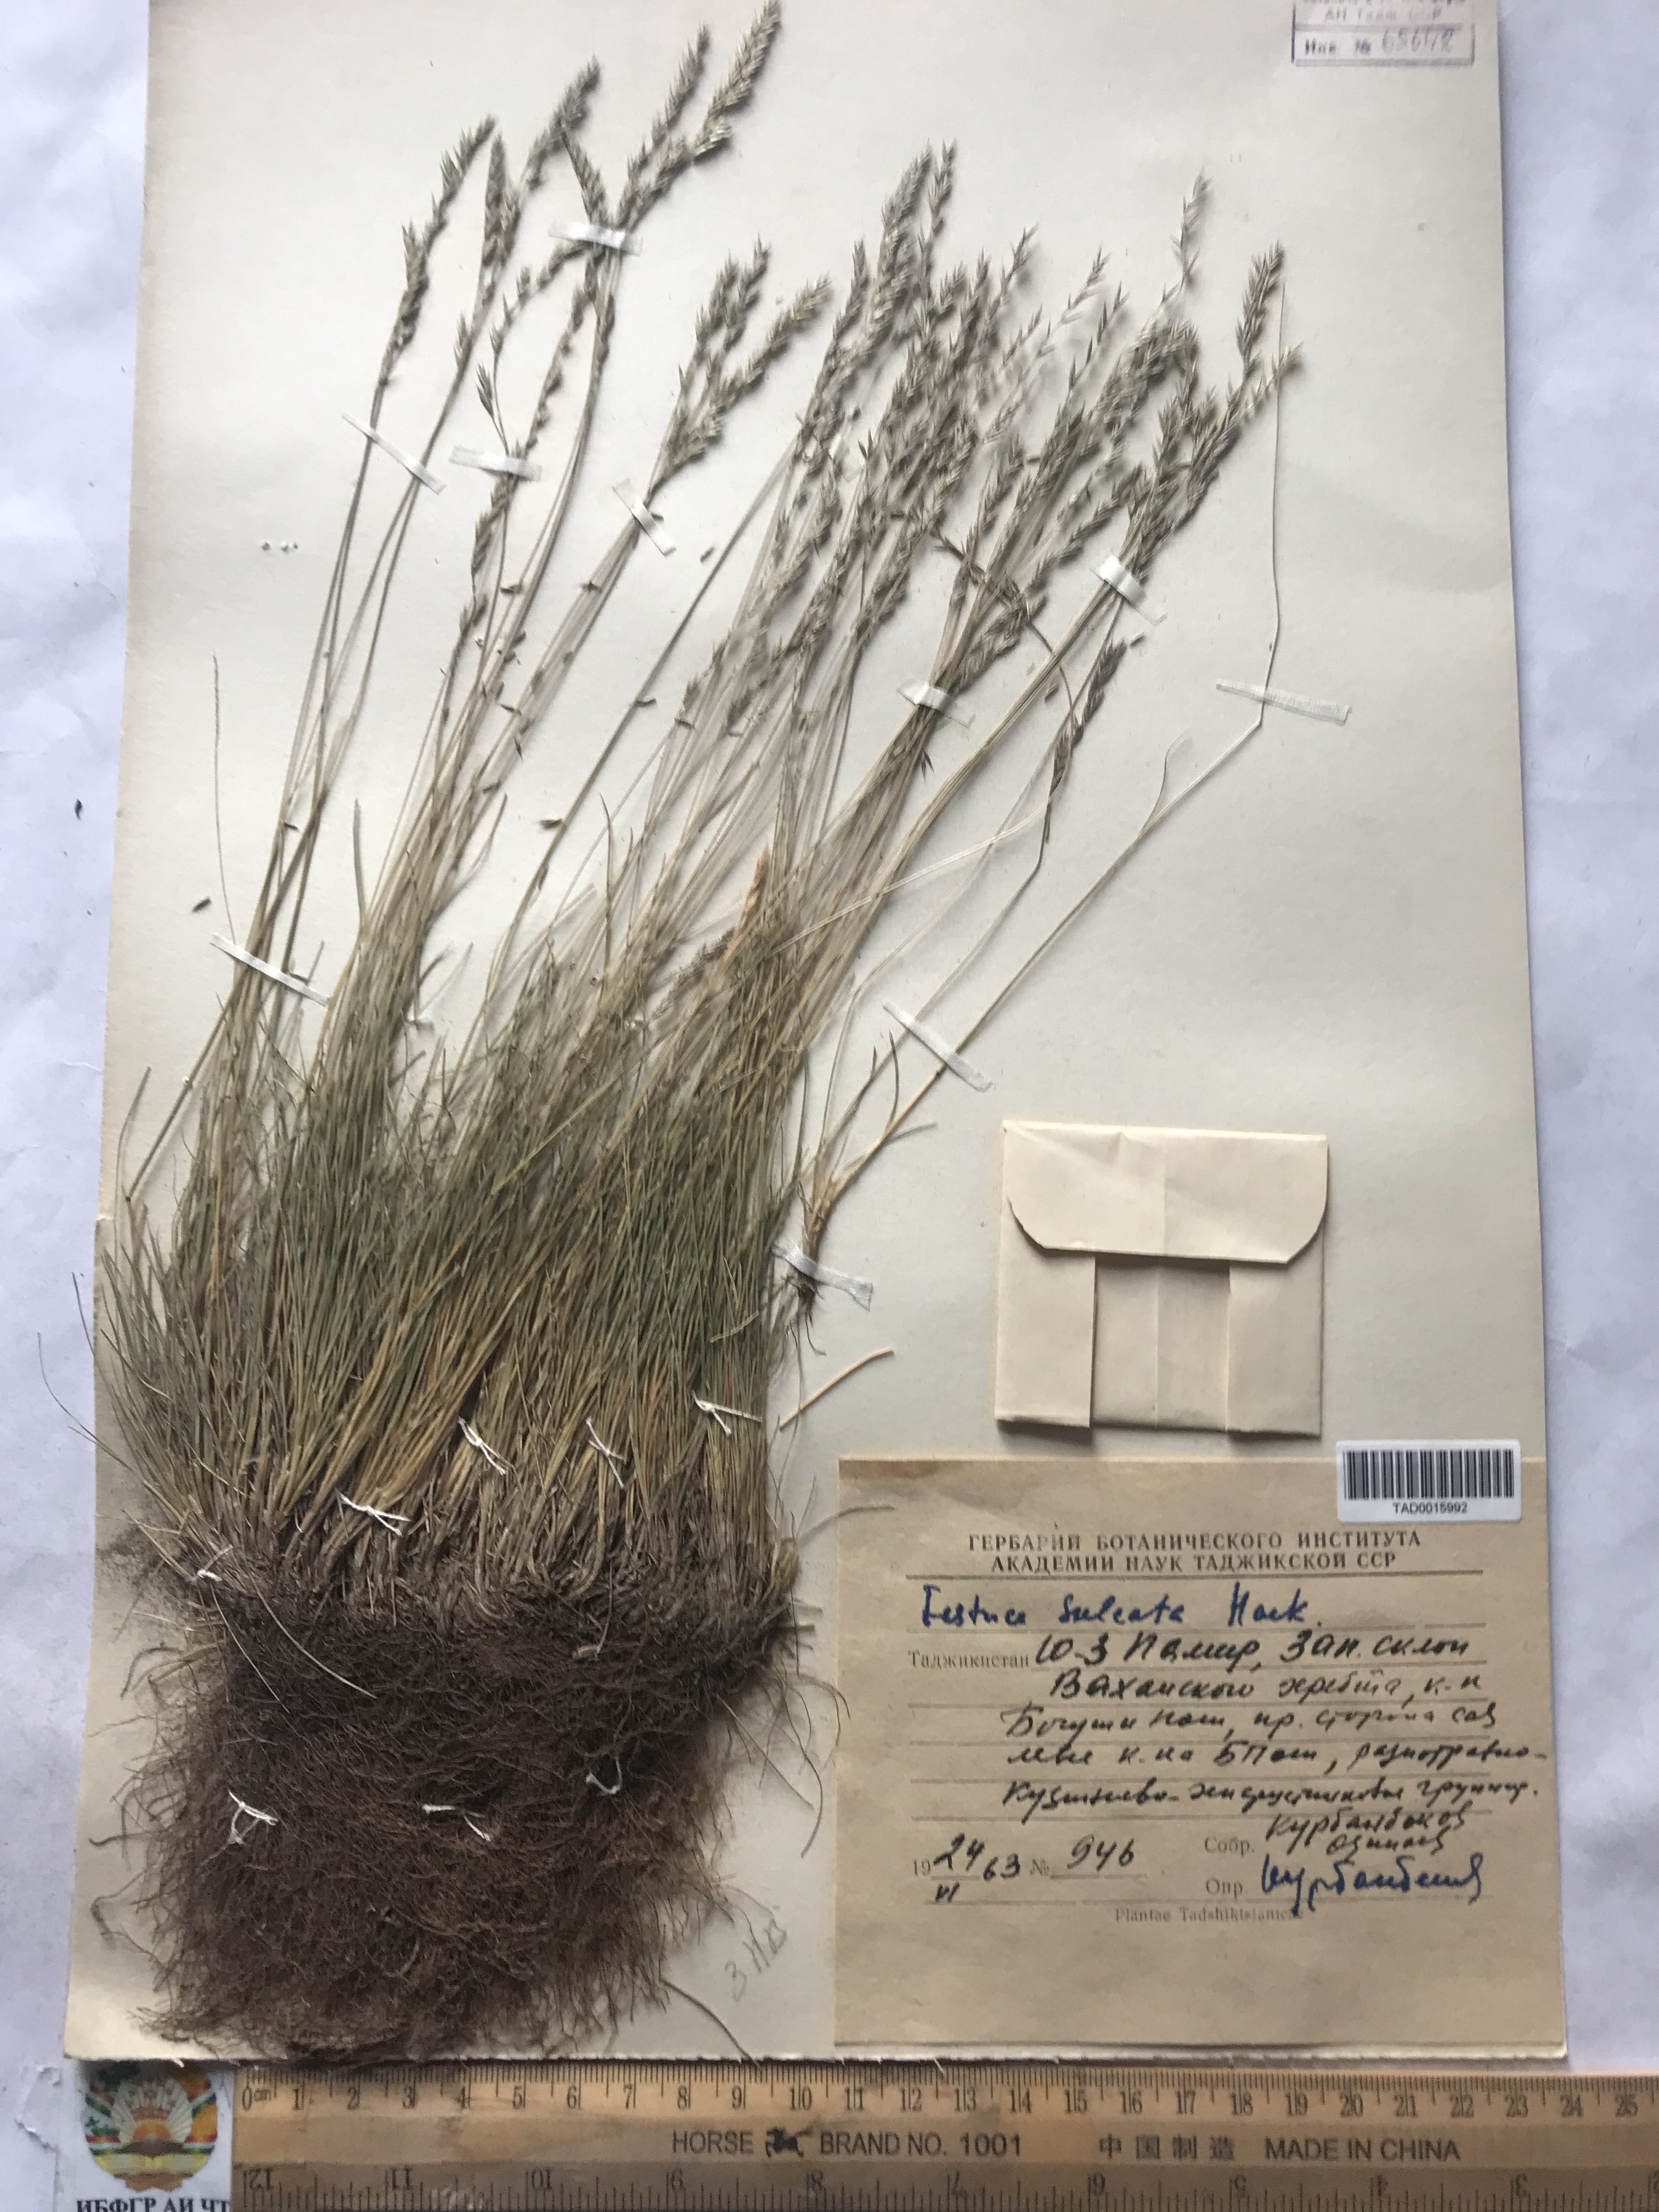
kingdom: Plantae
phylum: Tracheophyta
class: Liliopsida
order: Poales
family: Poaceae
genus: Festuca
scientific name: Festuca sulcata
